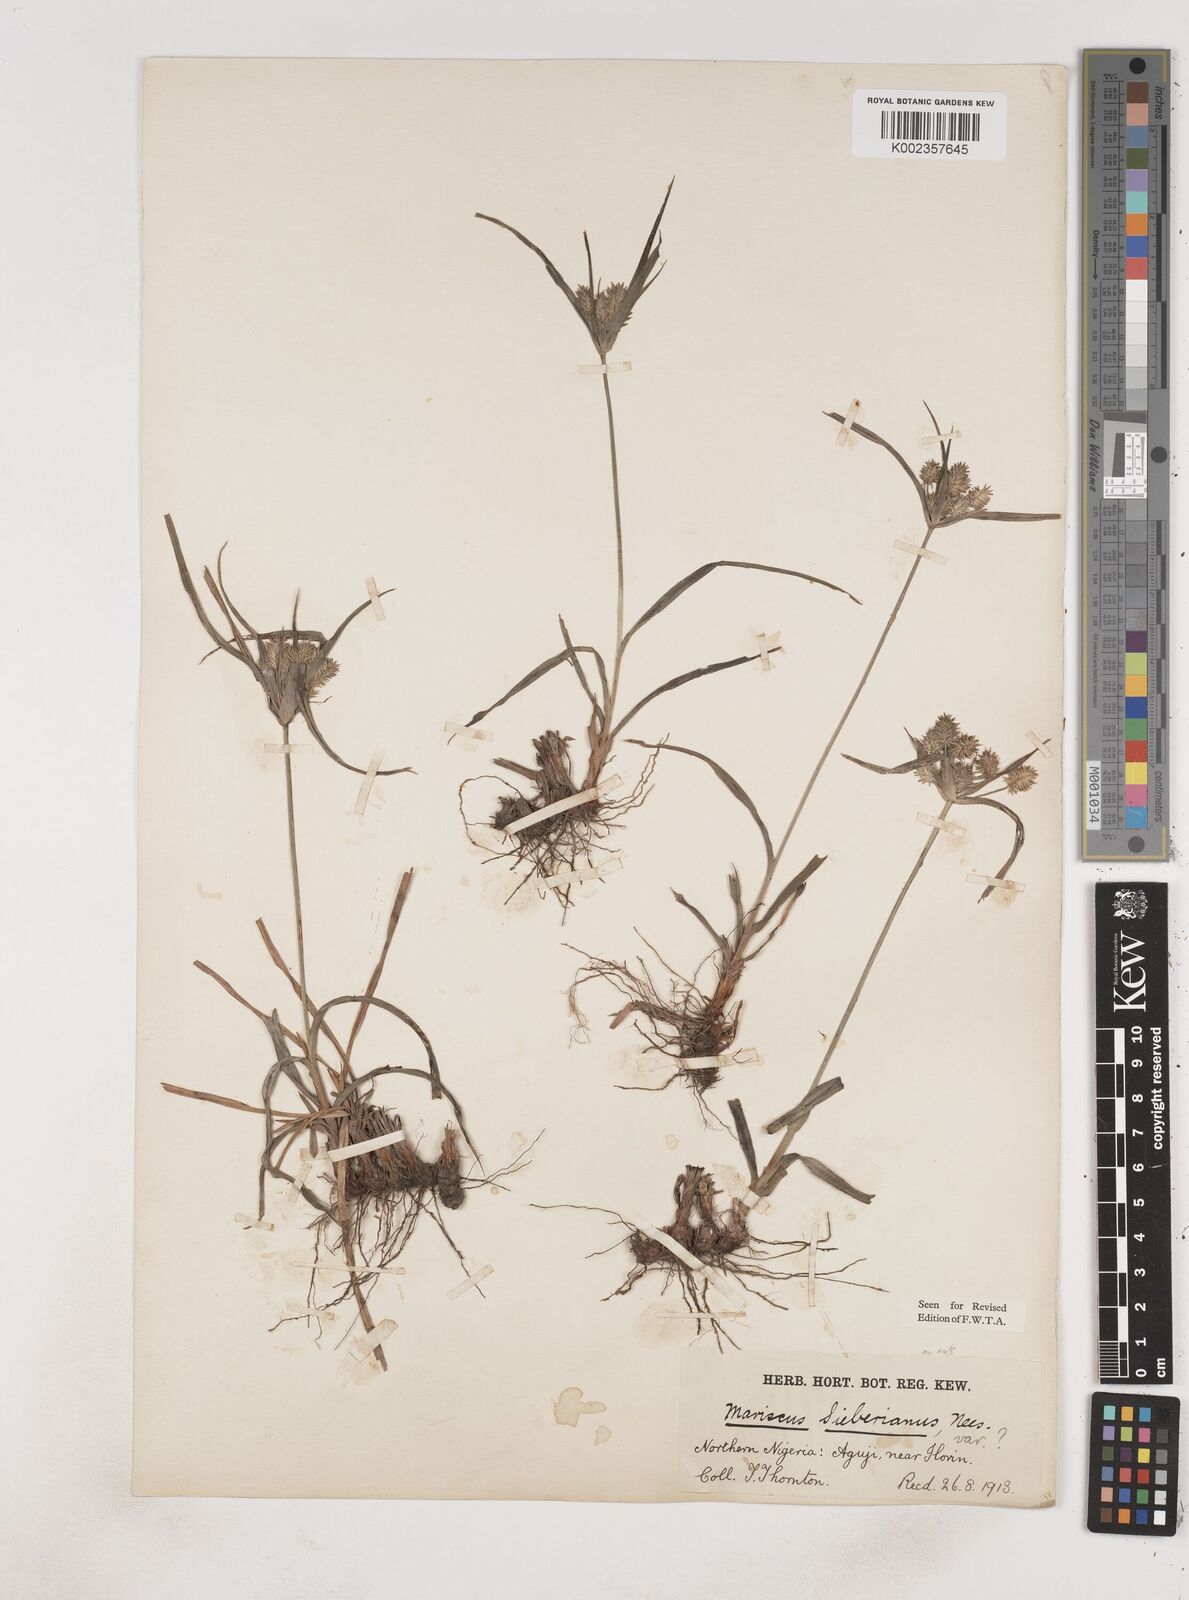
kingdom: Plantae
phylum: Tracheophyta
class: Liliopsida
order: Poales
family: Cyperaceae
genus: Cyperus
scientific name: Cyperus cyperoides
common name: Pacific island flat sedge
